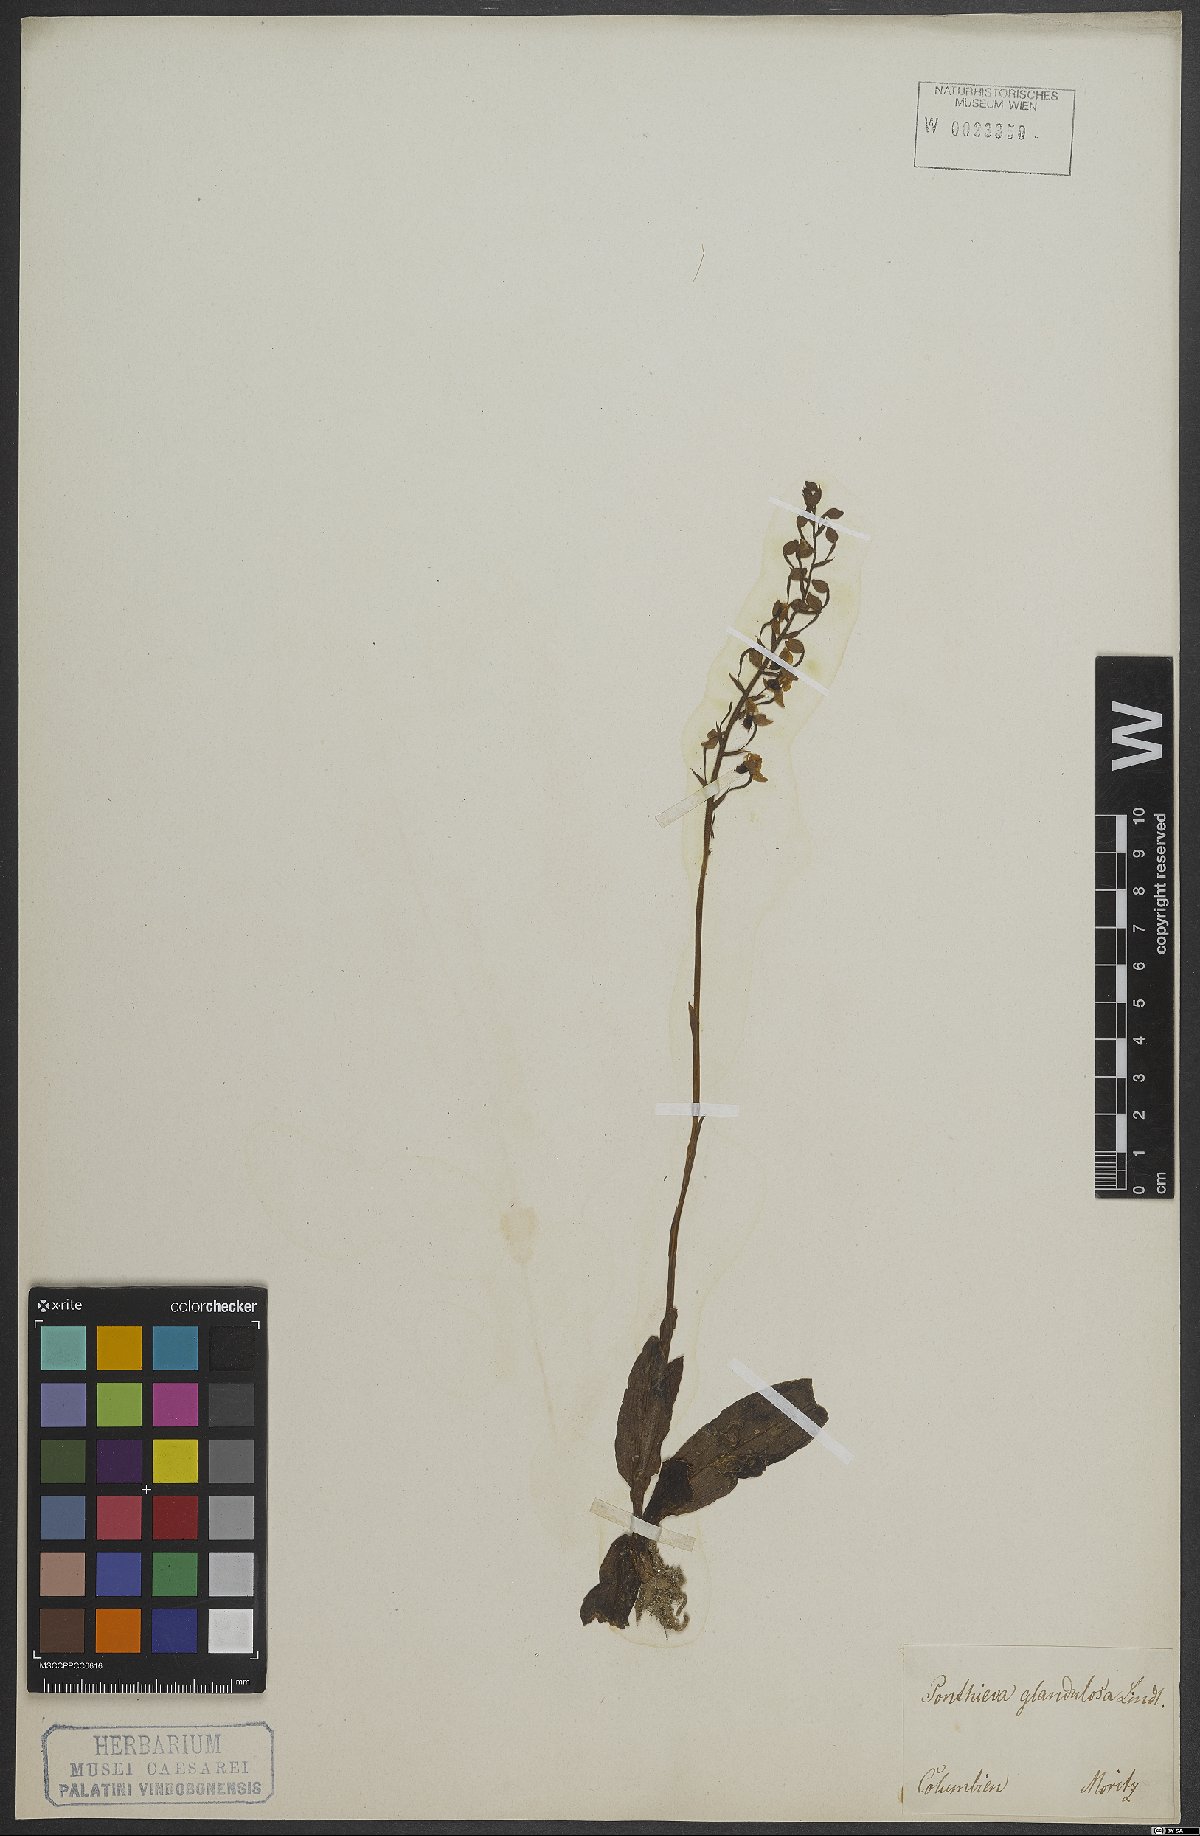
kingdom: Plantae
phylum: Tracheophyta
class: Liliopsida
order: Asparagales
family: Orchidaceae
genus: Ponthieva
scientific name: Ponthieva glandulosa
